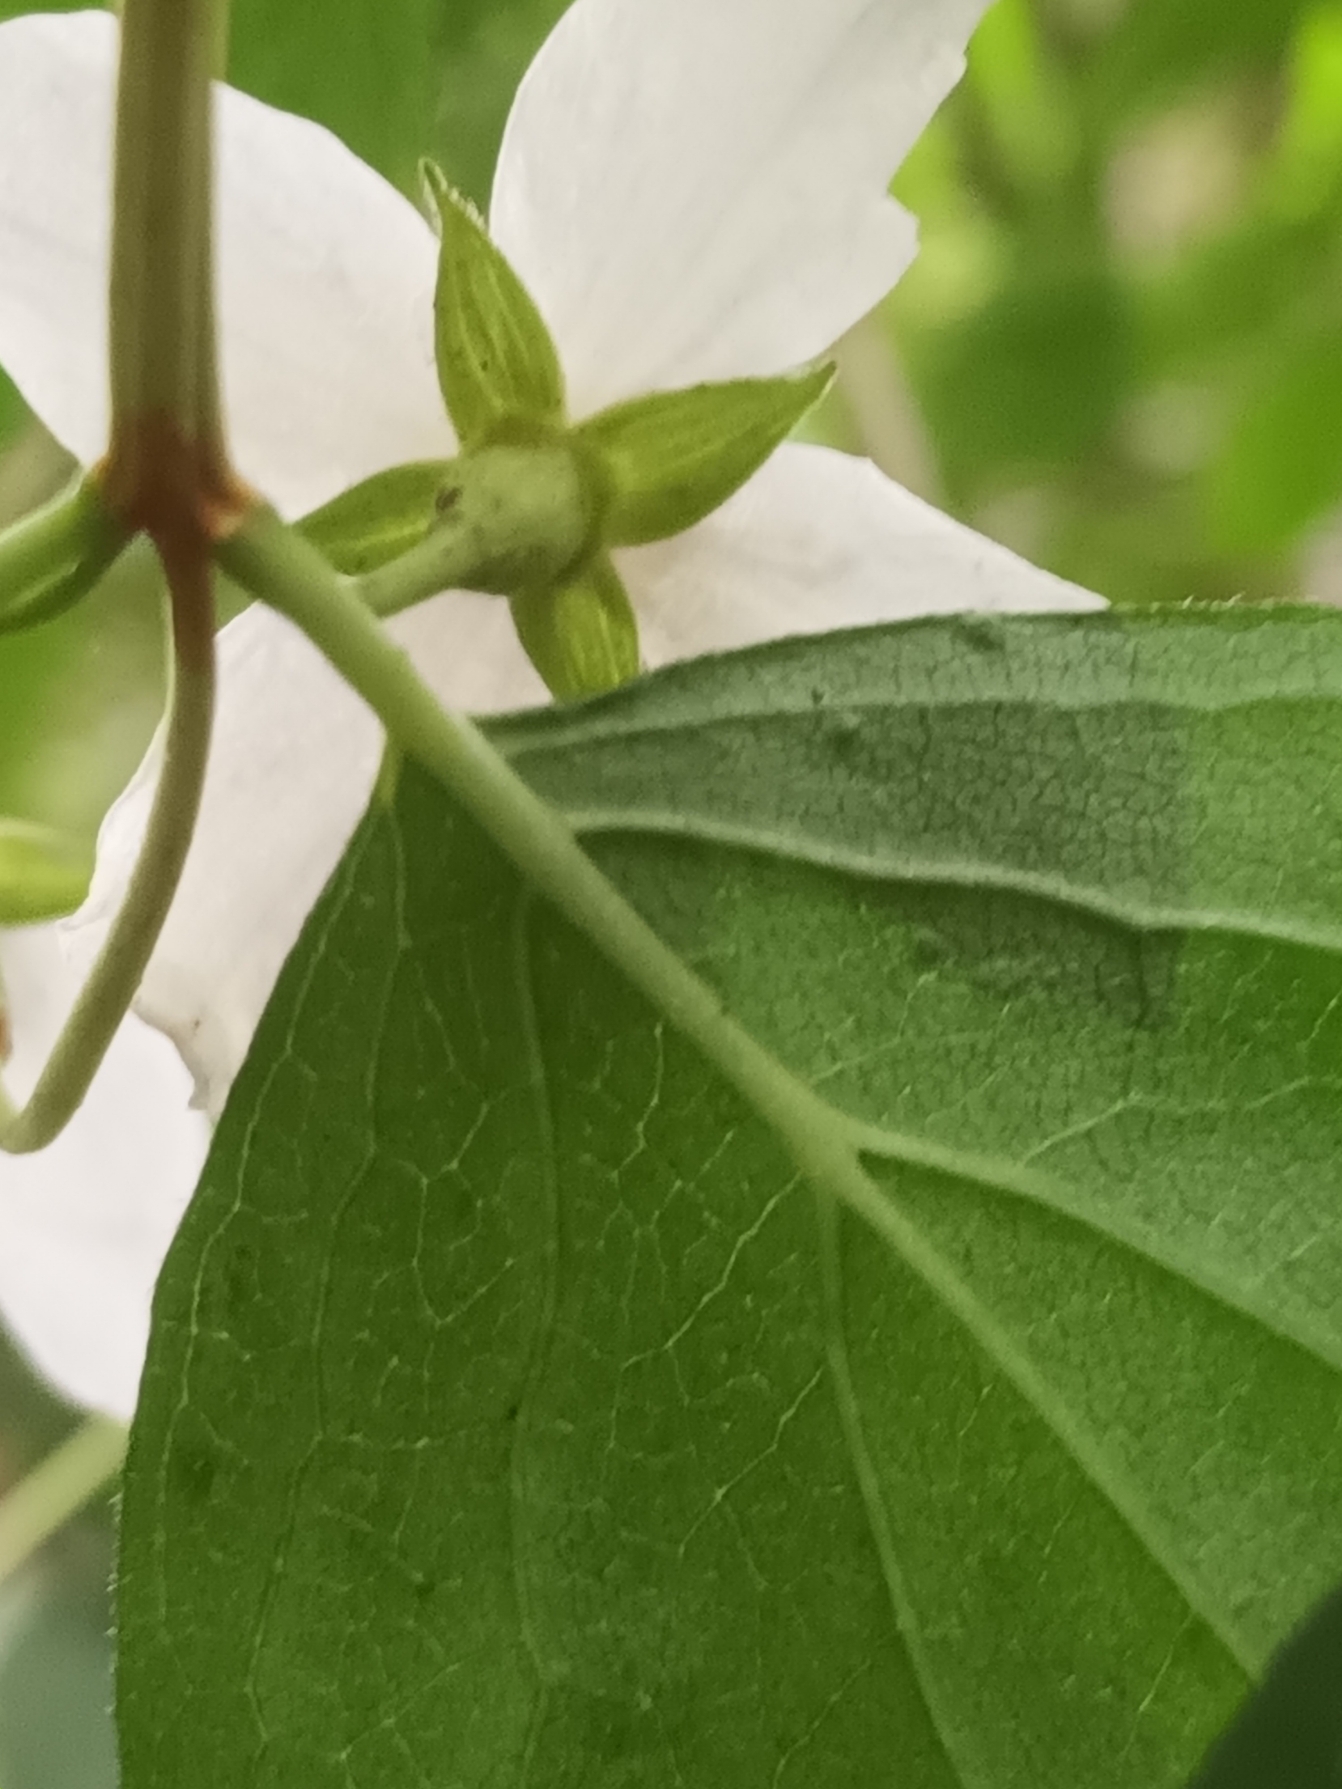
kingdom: Plantae
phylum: Tracheophyta
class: Magnoliopsida
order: Cornales
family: Hydrangeaceae
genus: Philadelphus
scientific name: Philadelphus pubescens
